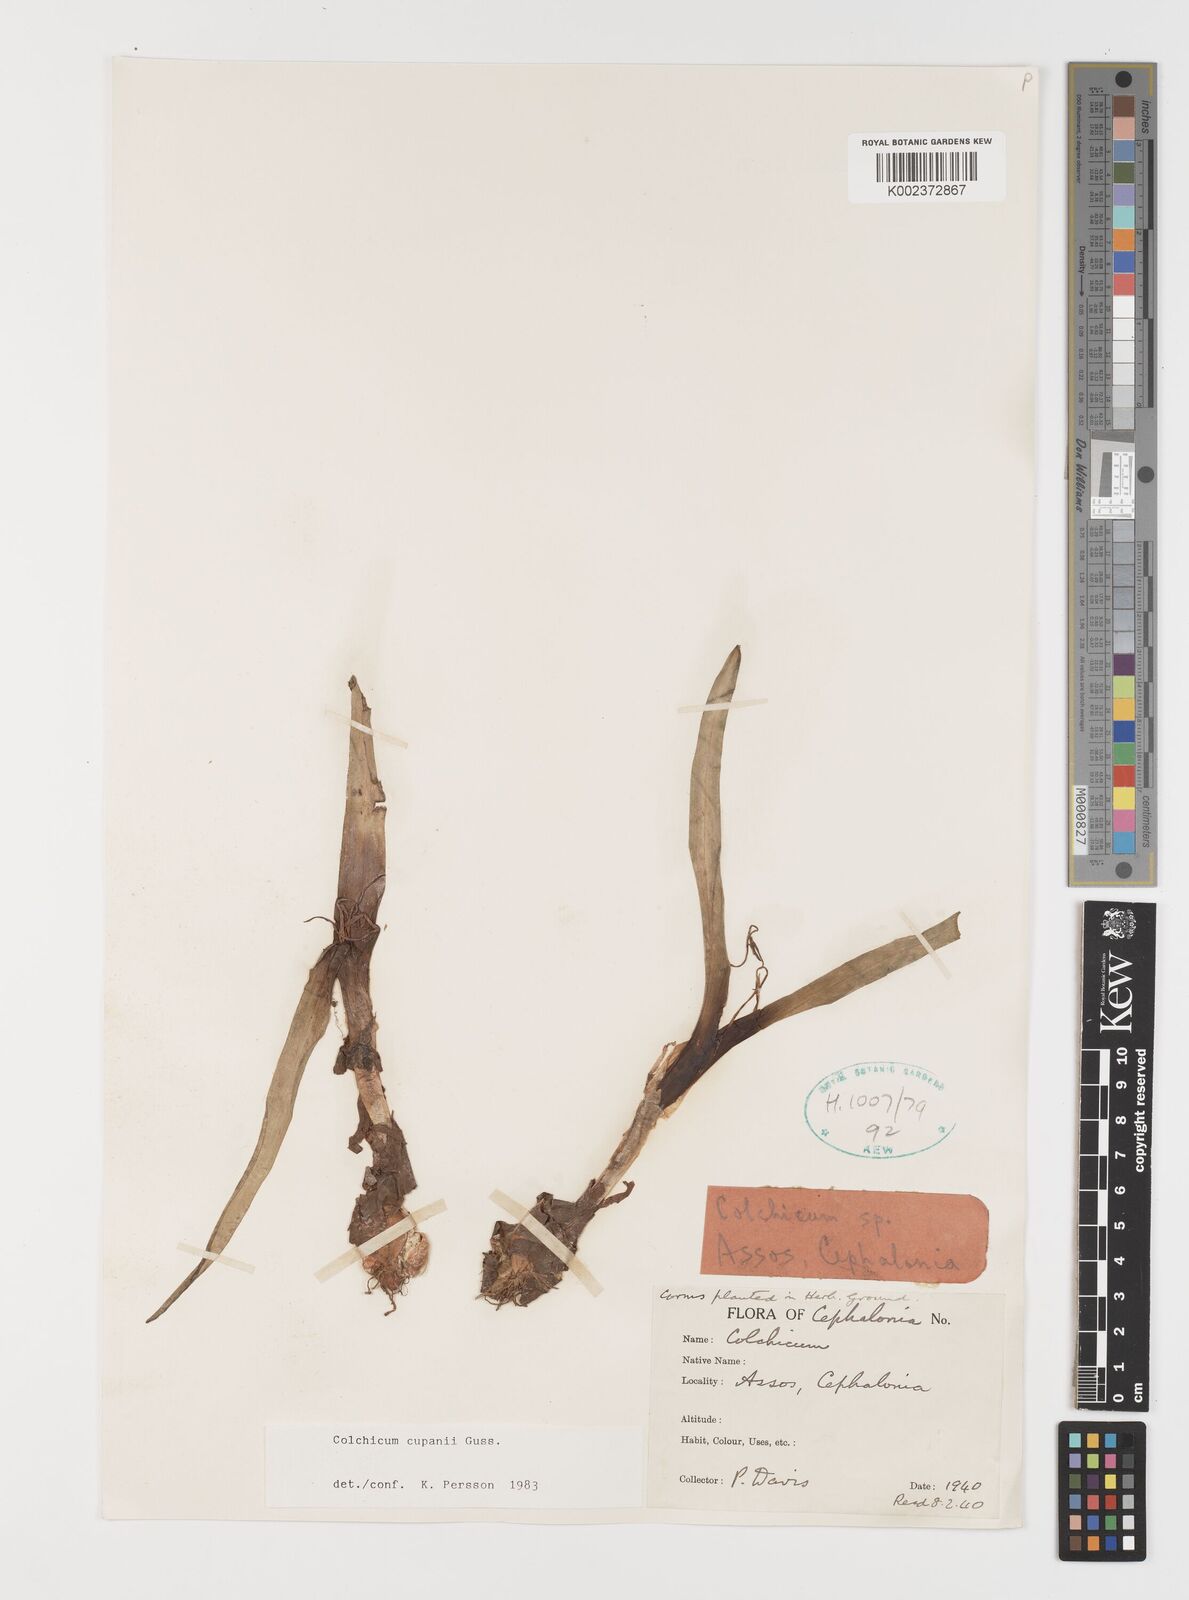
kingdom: Plantae
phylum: Tracheophyta
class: Liliopsida
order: Liliales
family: Colchicaceae
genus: Colchicum
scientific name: Colchicum cupanii
